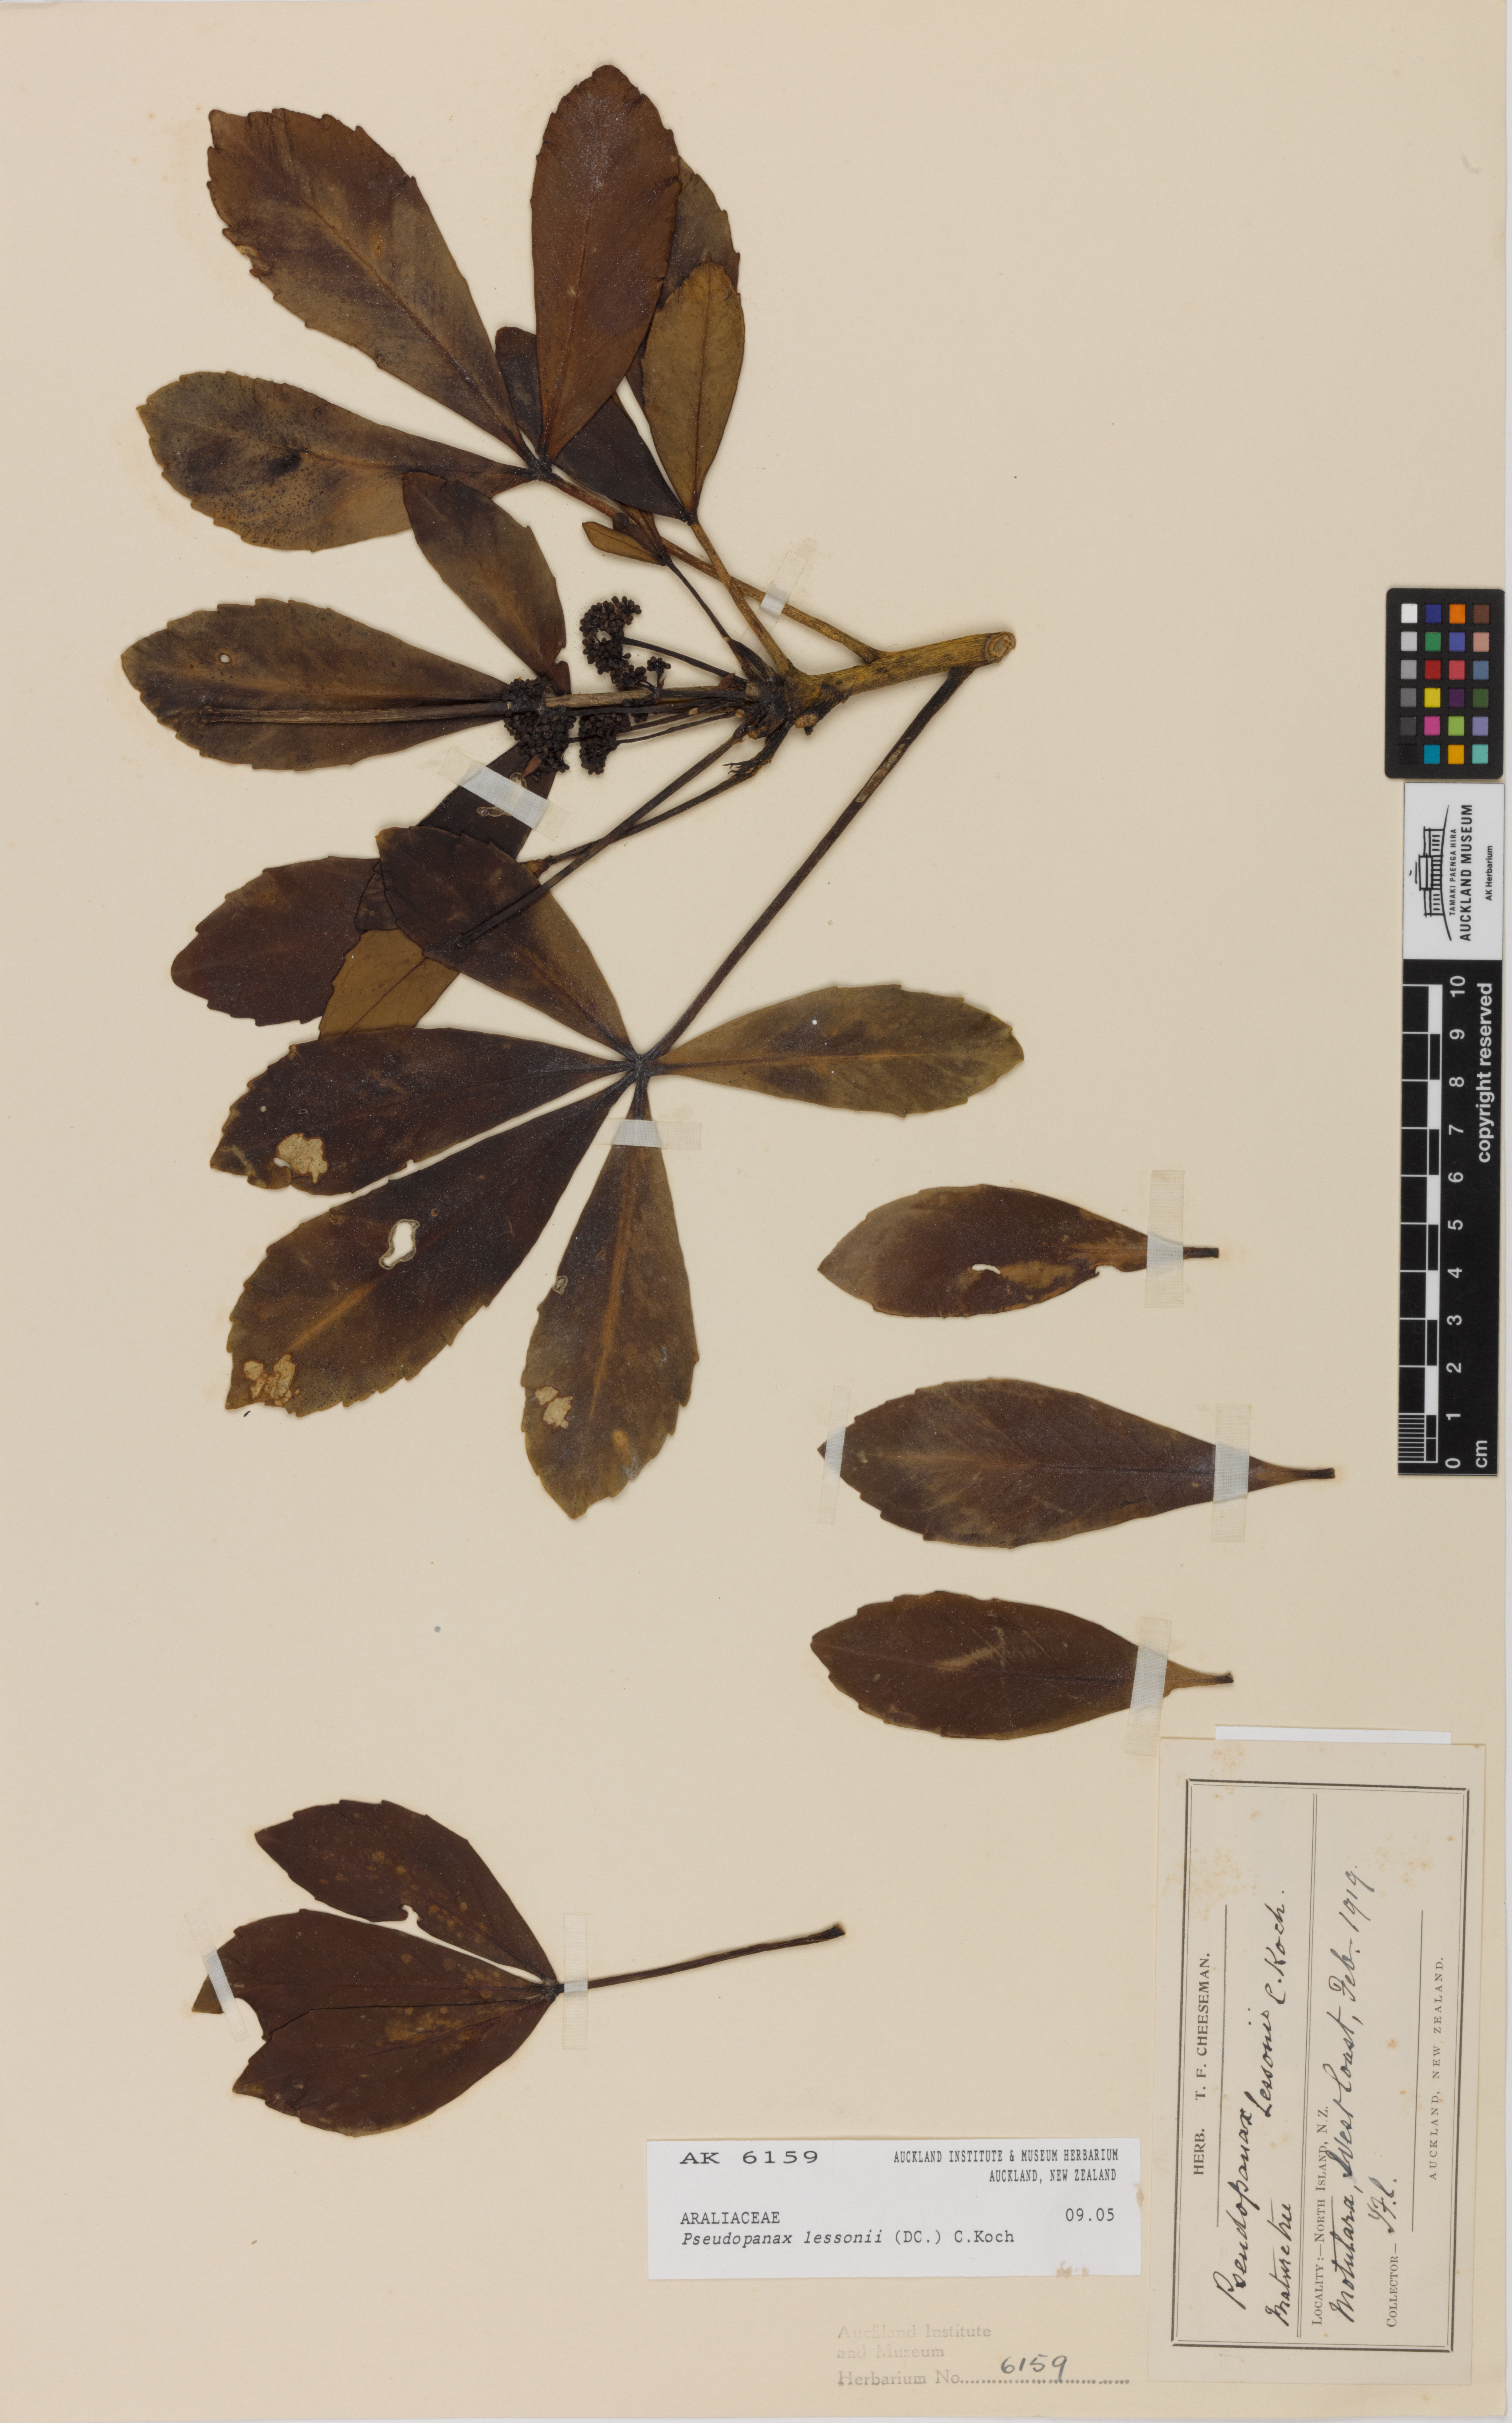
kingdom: Plantae
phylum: Tracheophyta
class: Magnoliopsida
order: Apiales
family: Araliaceae
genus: Pseudopanax
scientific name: Pseudopanax lessonii
